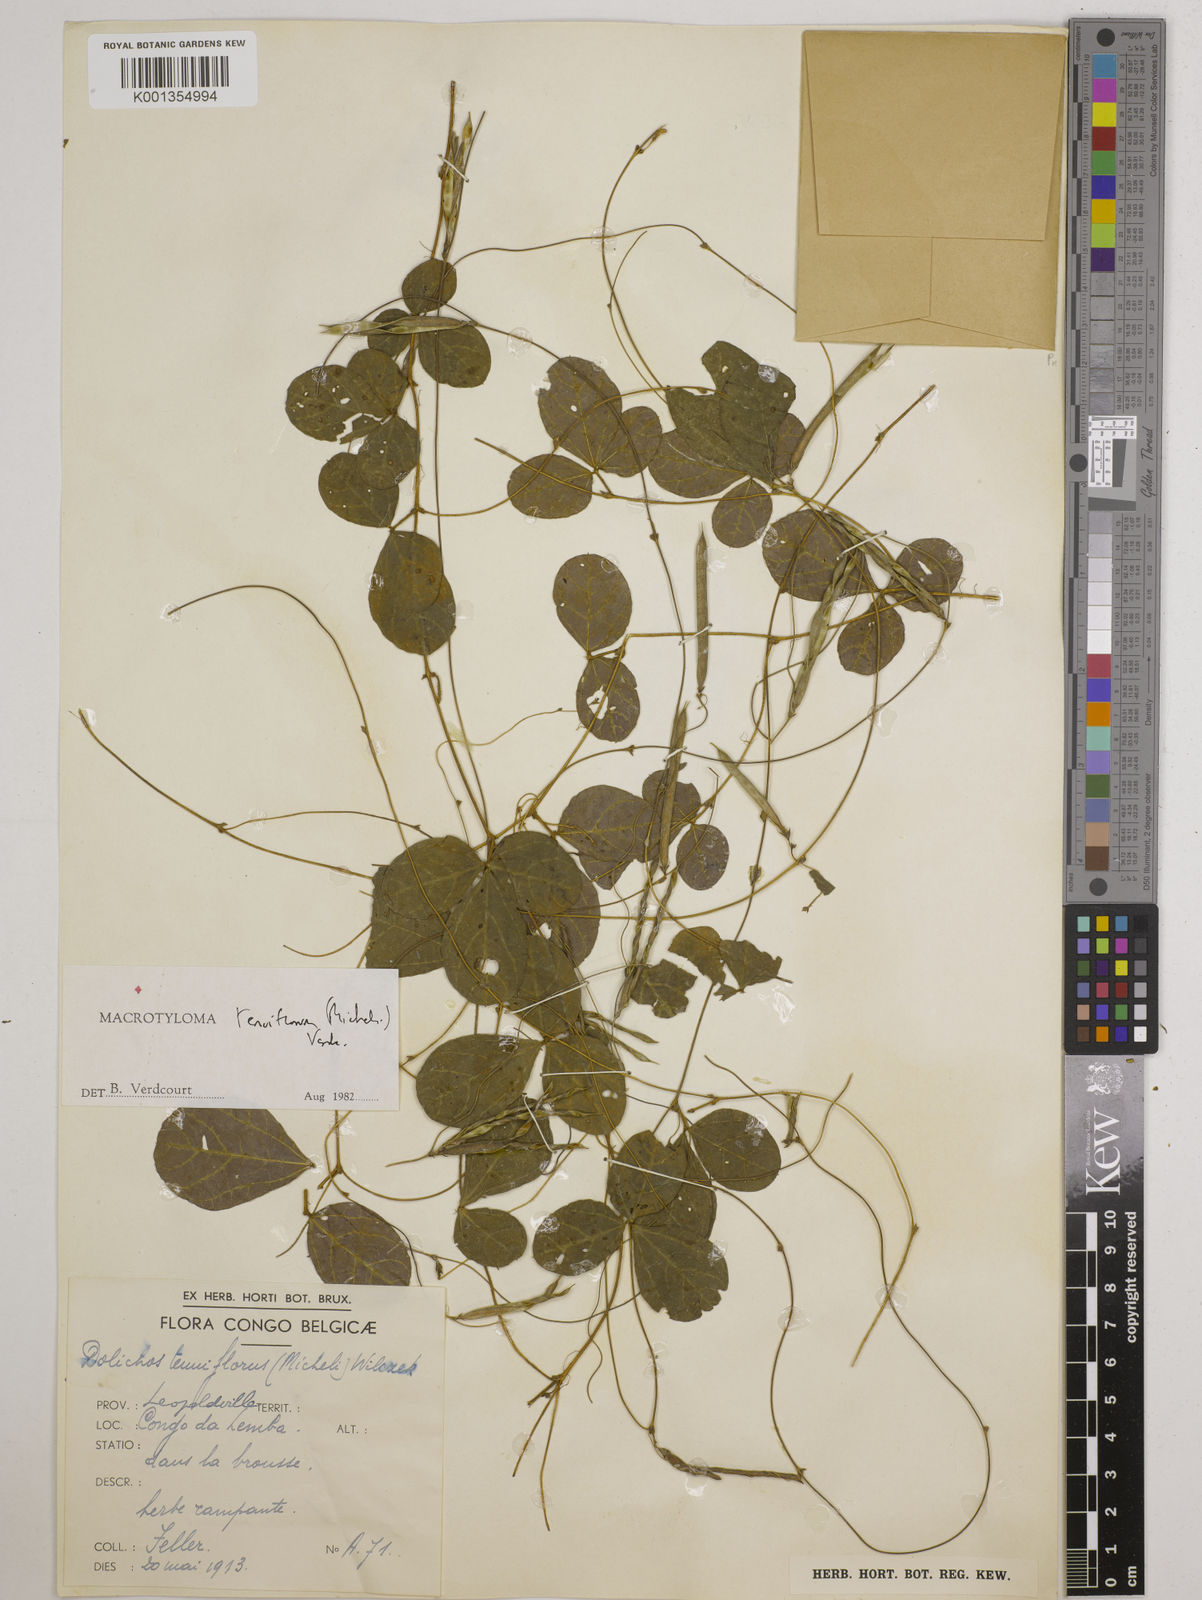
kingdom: Plantae
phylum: Tracheophyta
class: Magnoliopsida
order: Fabales
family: Fabaceae
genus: Macrotyloma
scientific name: Macrotyloma tenuiflorum
